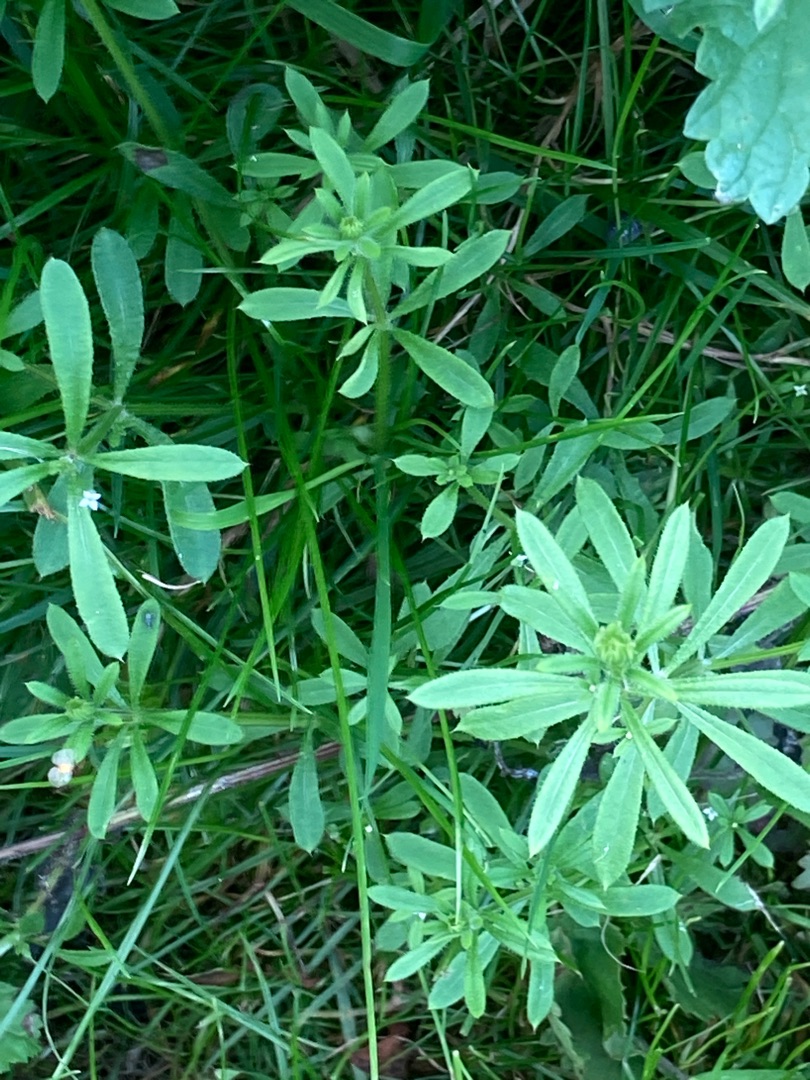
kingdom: Plantae
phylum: Tracheophyta
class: Magnoliopsida
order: Gentianales
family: Rubiaceae
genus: Galium
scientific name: Galium aparine
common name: Burre-snerre
